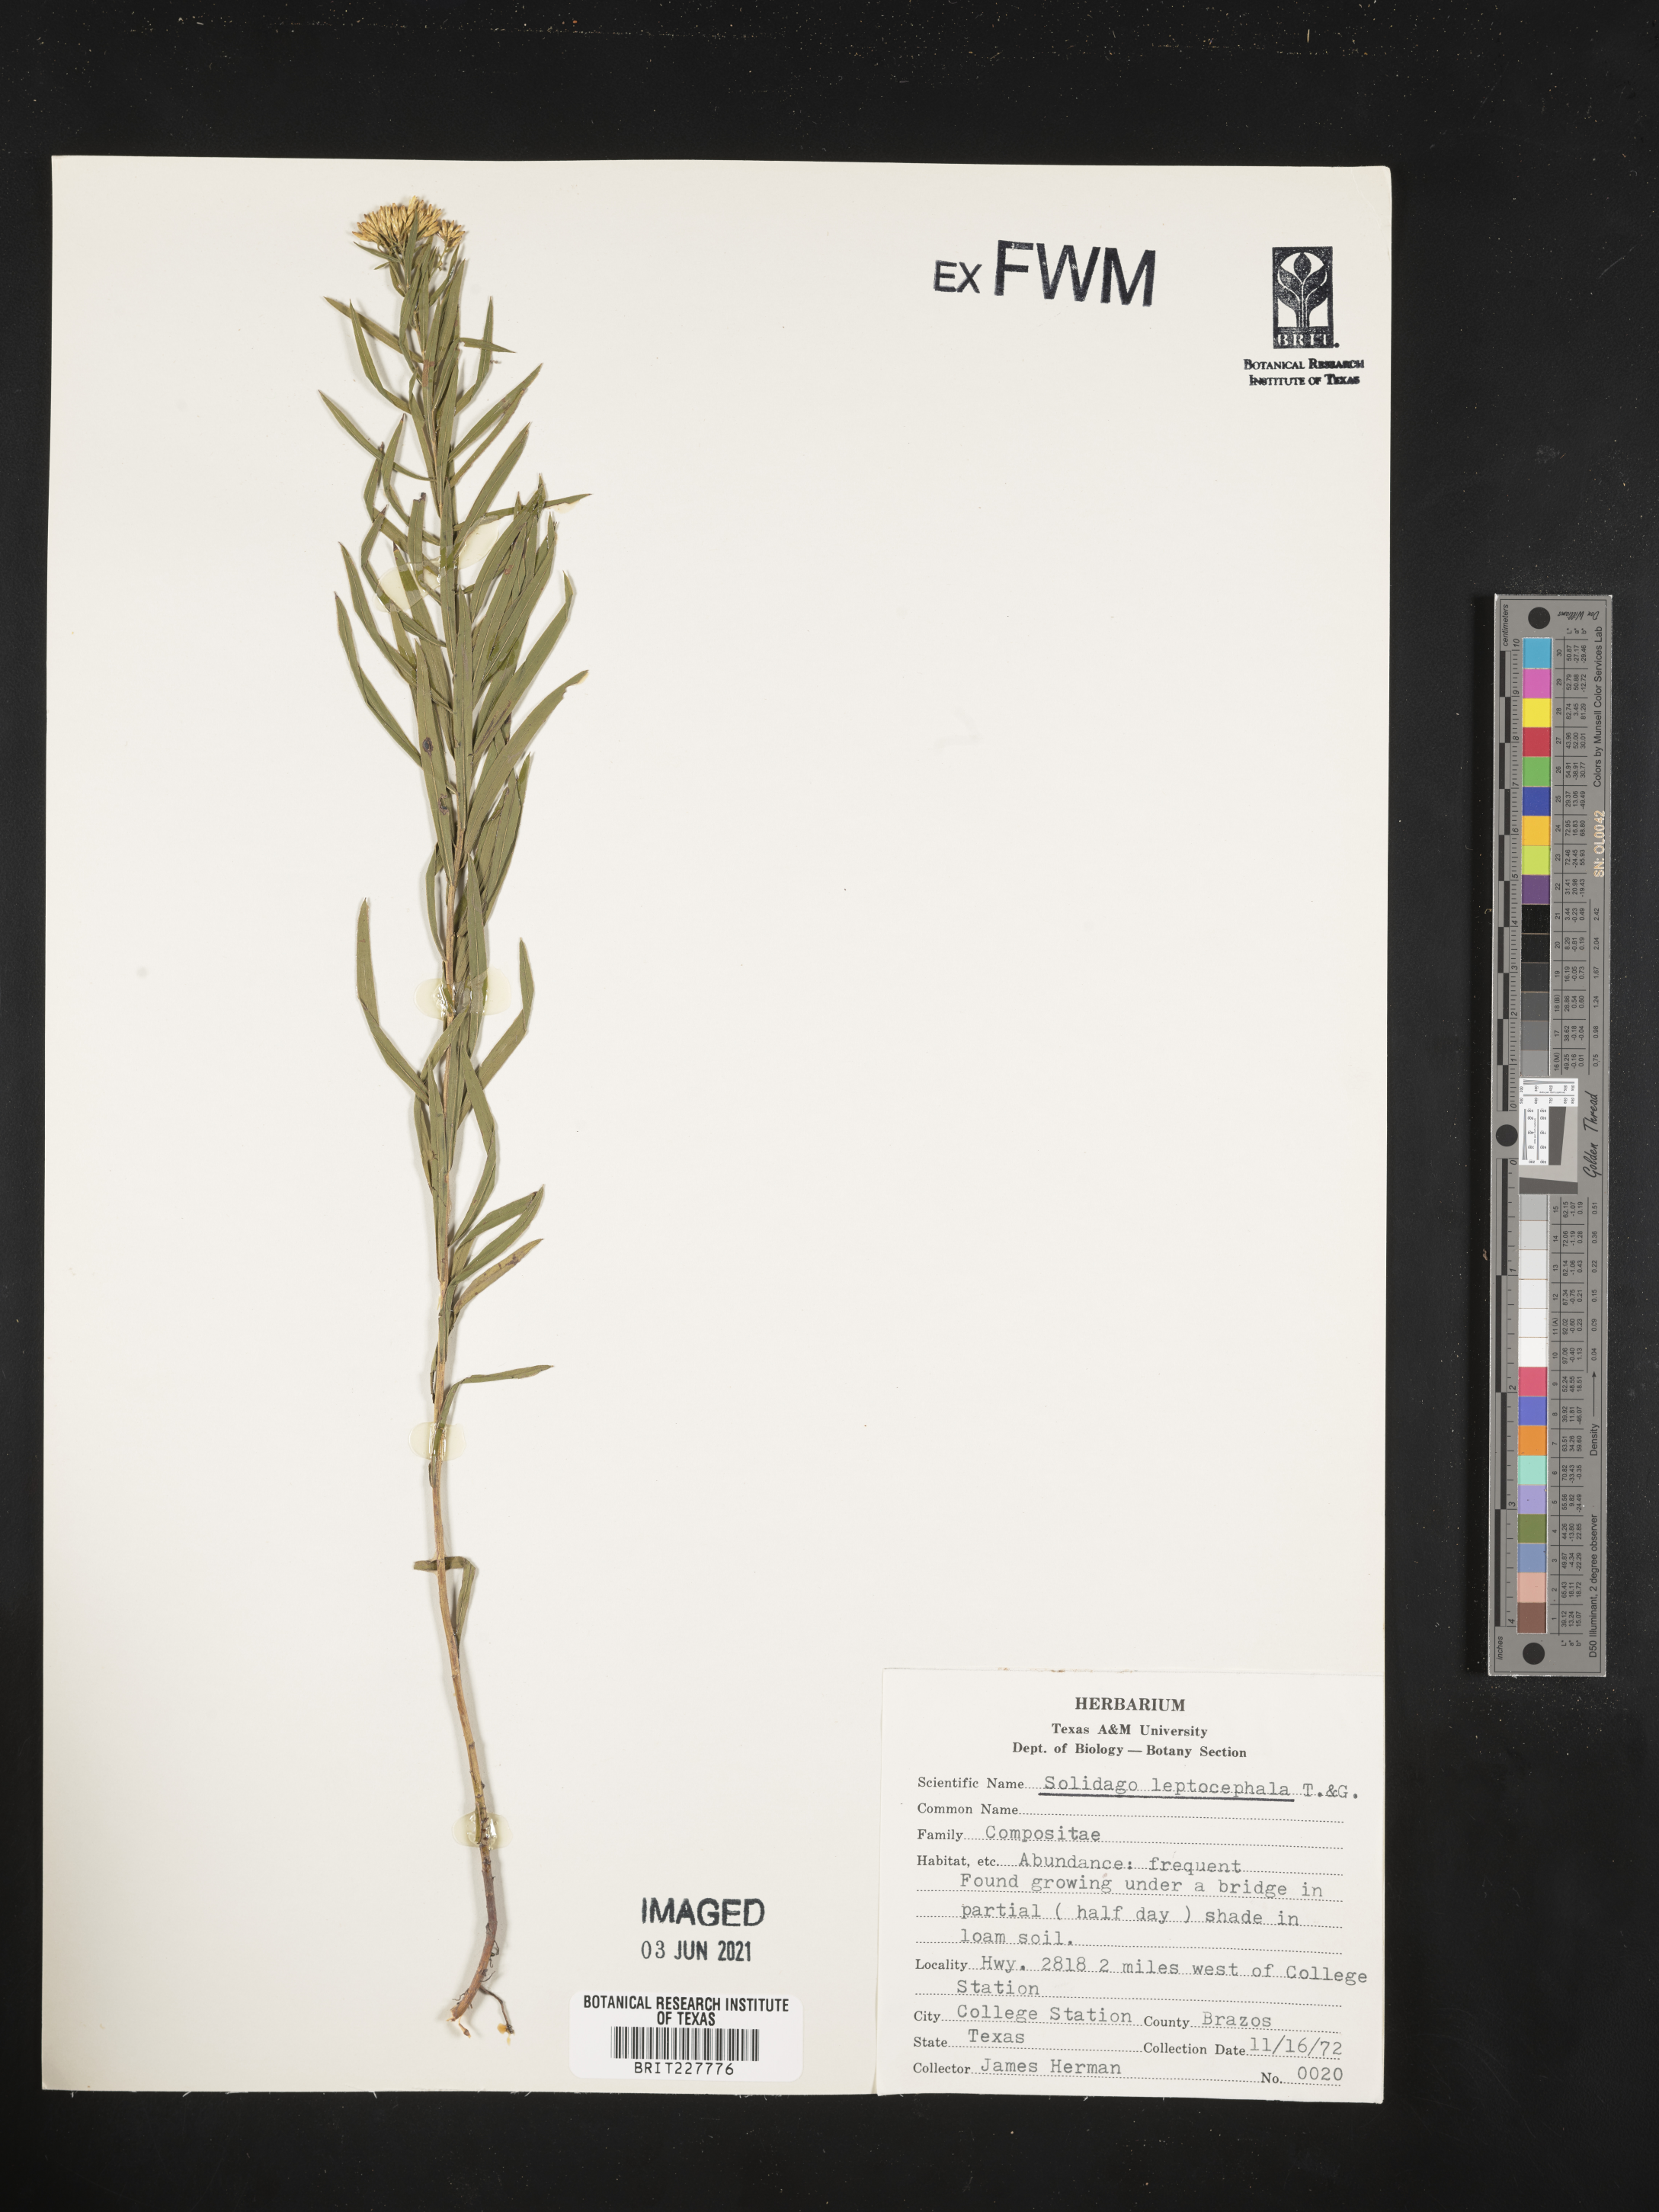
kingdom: Plantae
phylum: Tracheophyta
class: Magnoliopsida
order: Asterales
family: Asteraceae
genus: Euthamia
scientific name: Euthamia leptocephala
